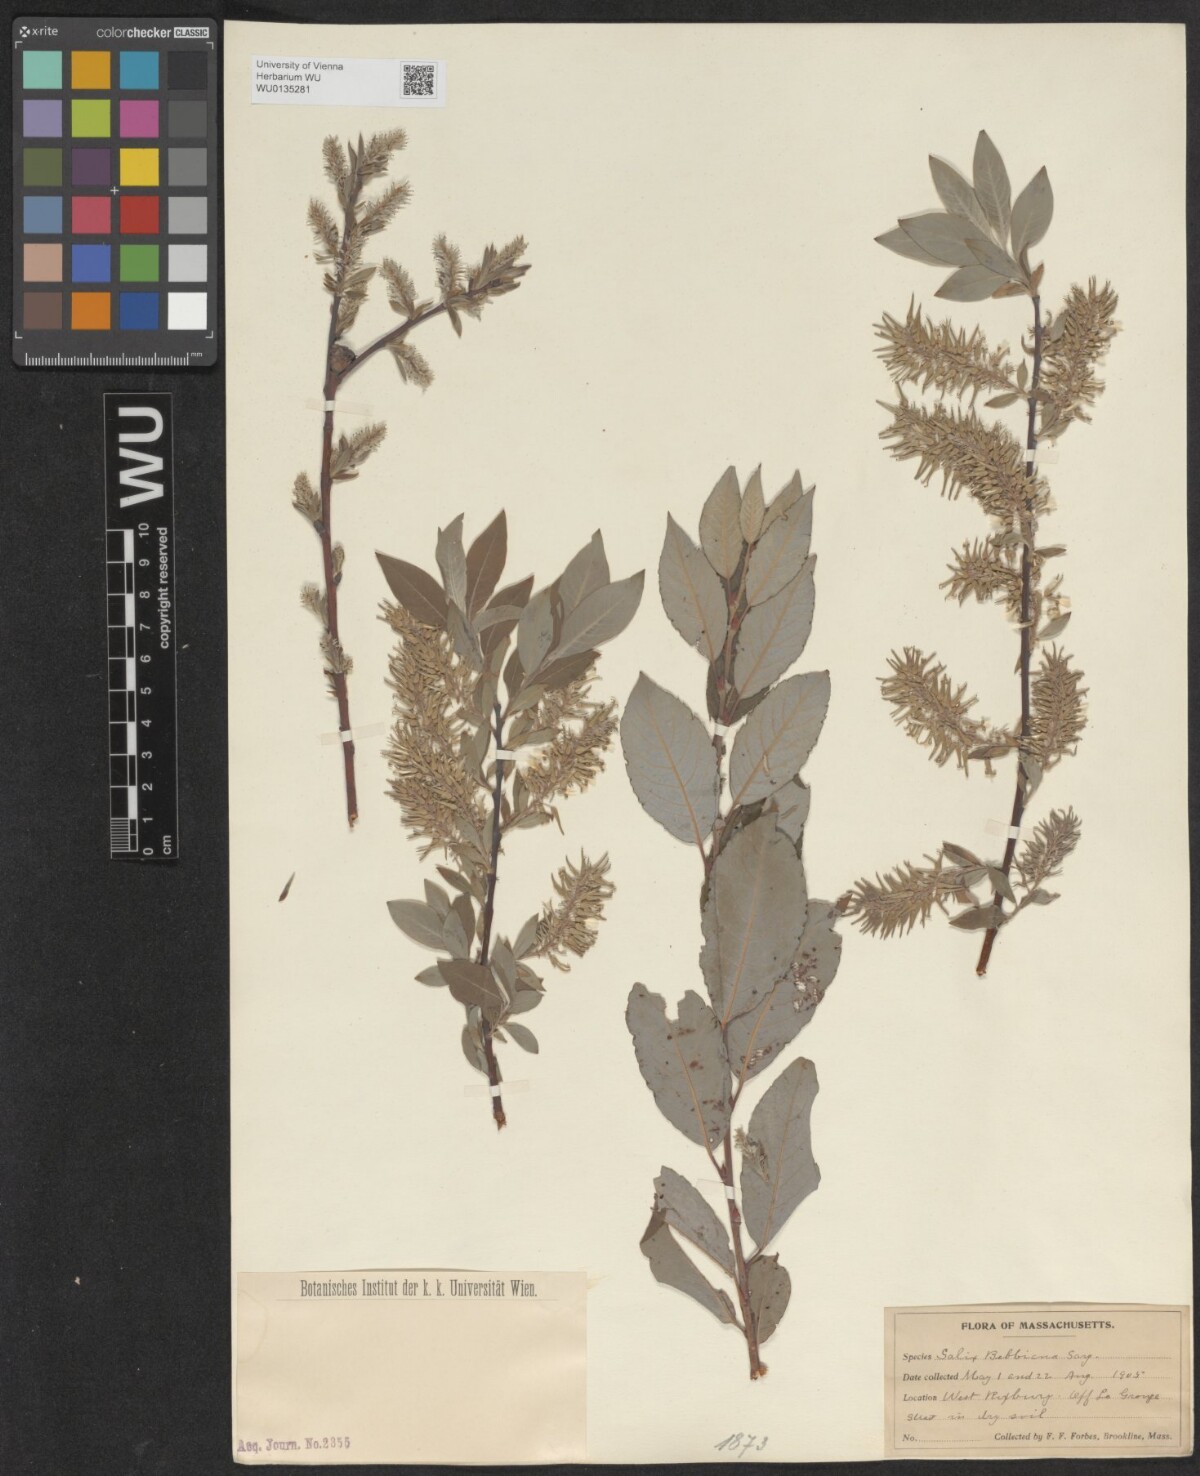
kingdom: Plantae
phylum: Tracheophyta
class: Magnoliopsida
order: Malpighiales
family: Salicaceae
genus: Salix
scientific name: Salix bebbiana
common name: Bebb's willow
